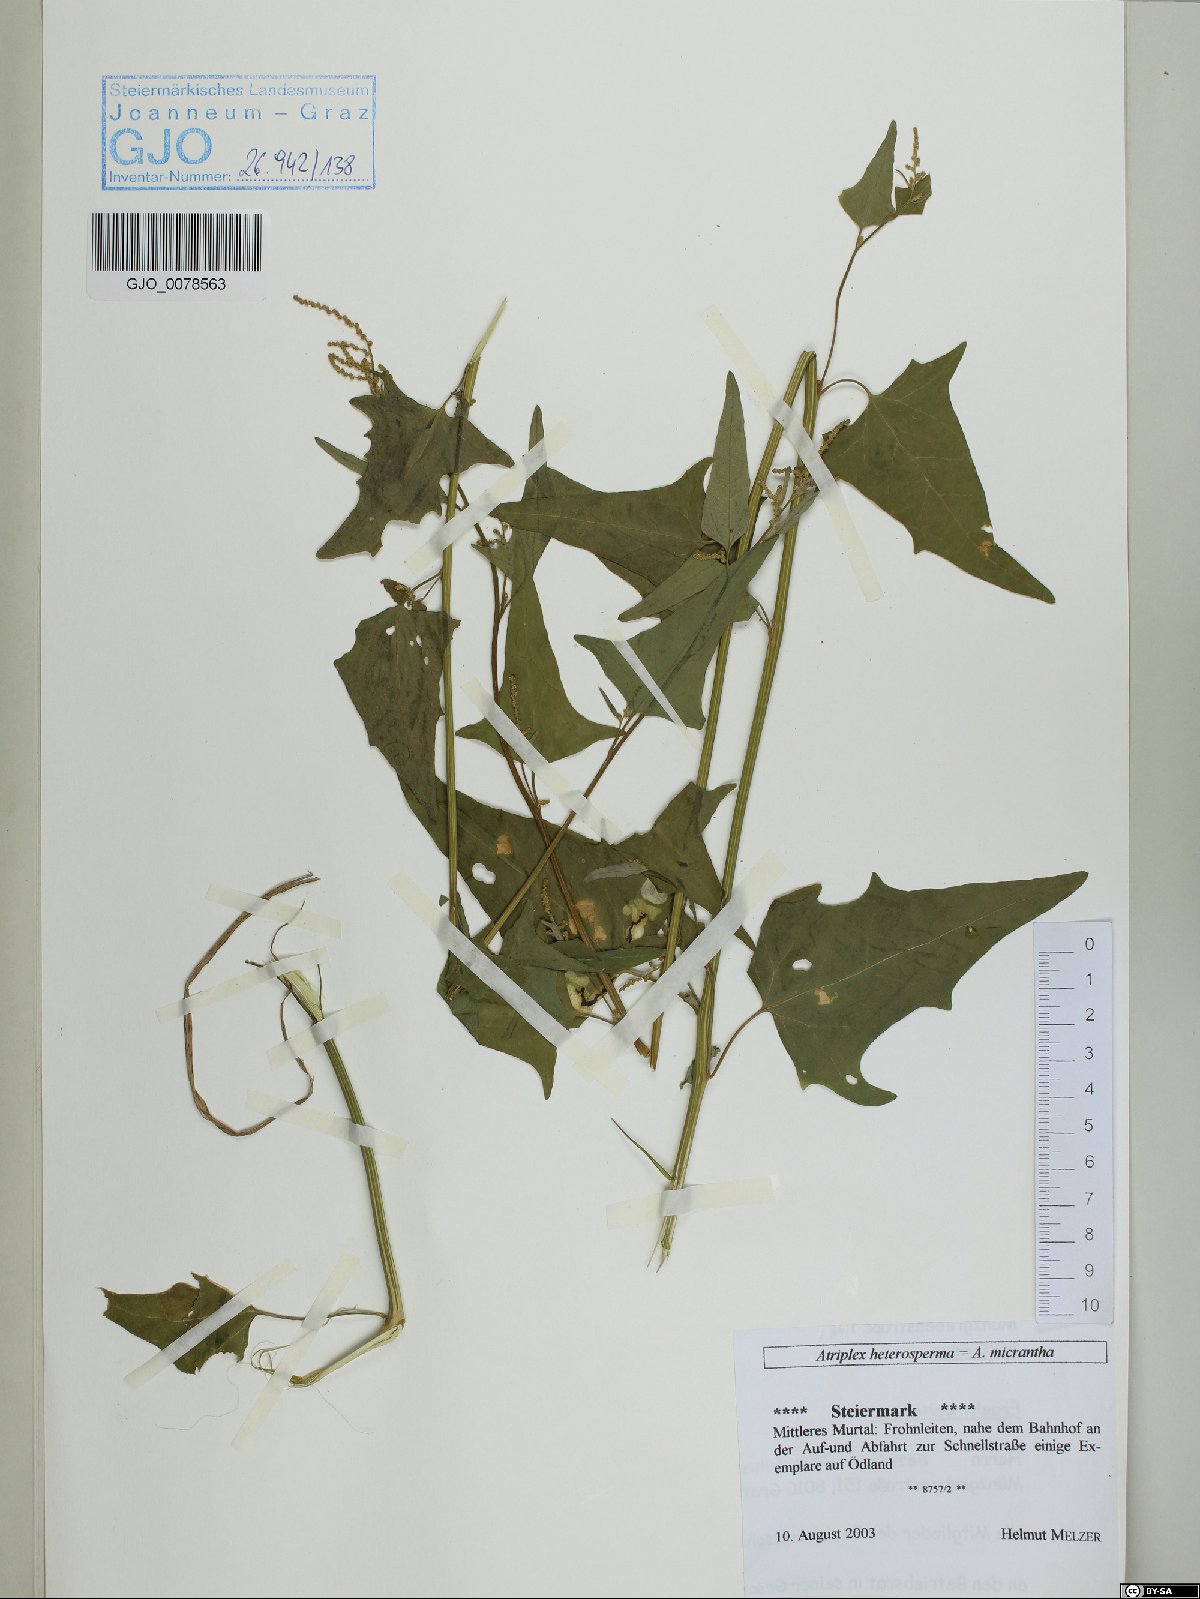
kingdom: Plantae
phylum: Tracheophyta
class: Magnoliopsida
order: Caryophyllales
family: Amaranthaceae
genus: Atriplex
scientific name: Atriplex micrantha
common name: Twoscale saltbush
